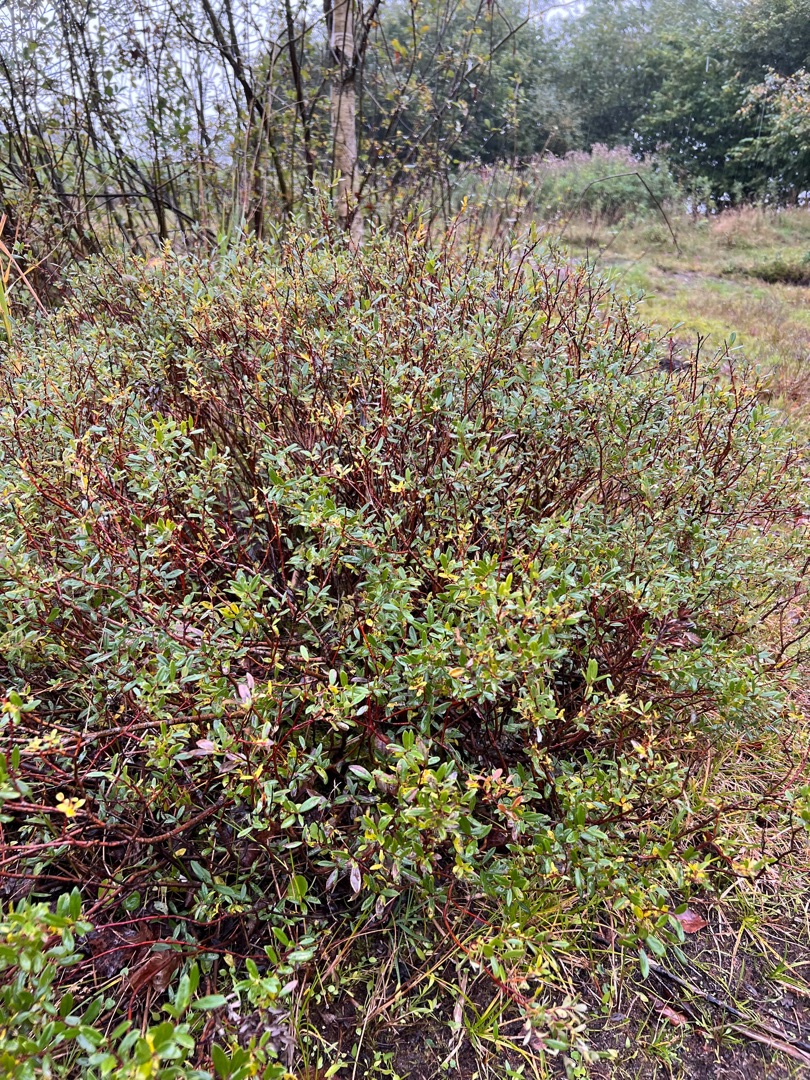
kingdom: Plantae
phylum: Tracheophyta
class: Magnoliopsida
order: Malpighiales
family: Salicaceae
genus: Salix
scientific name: Salix repens
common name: Krybende pil
